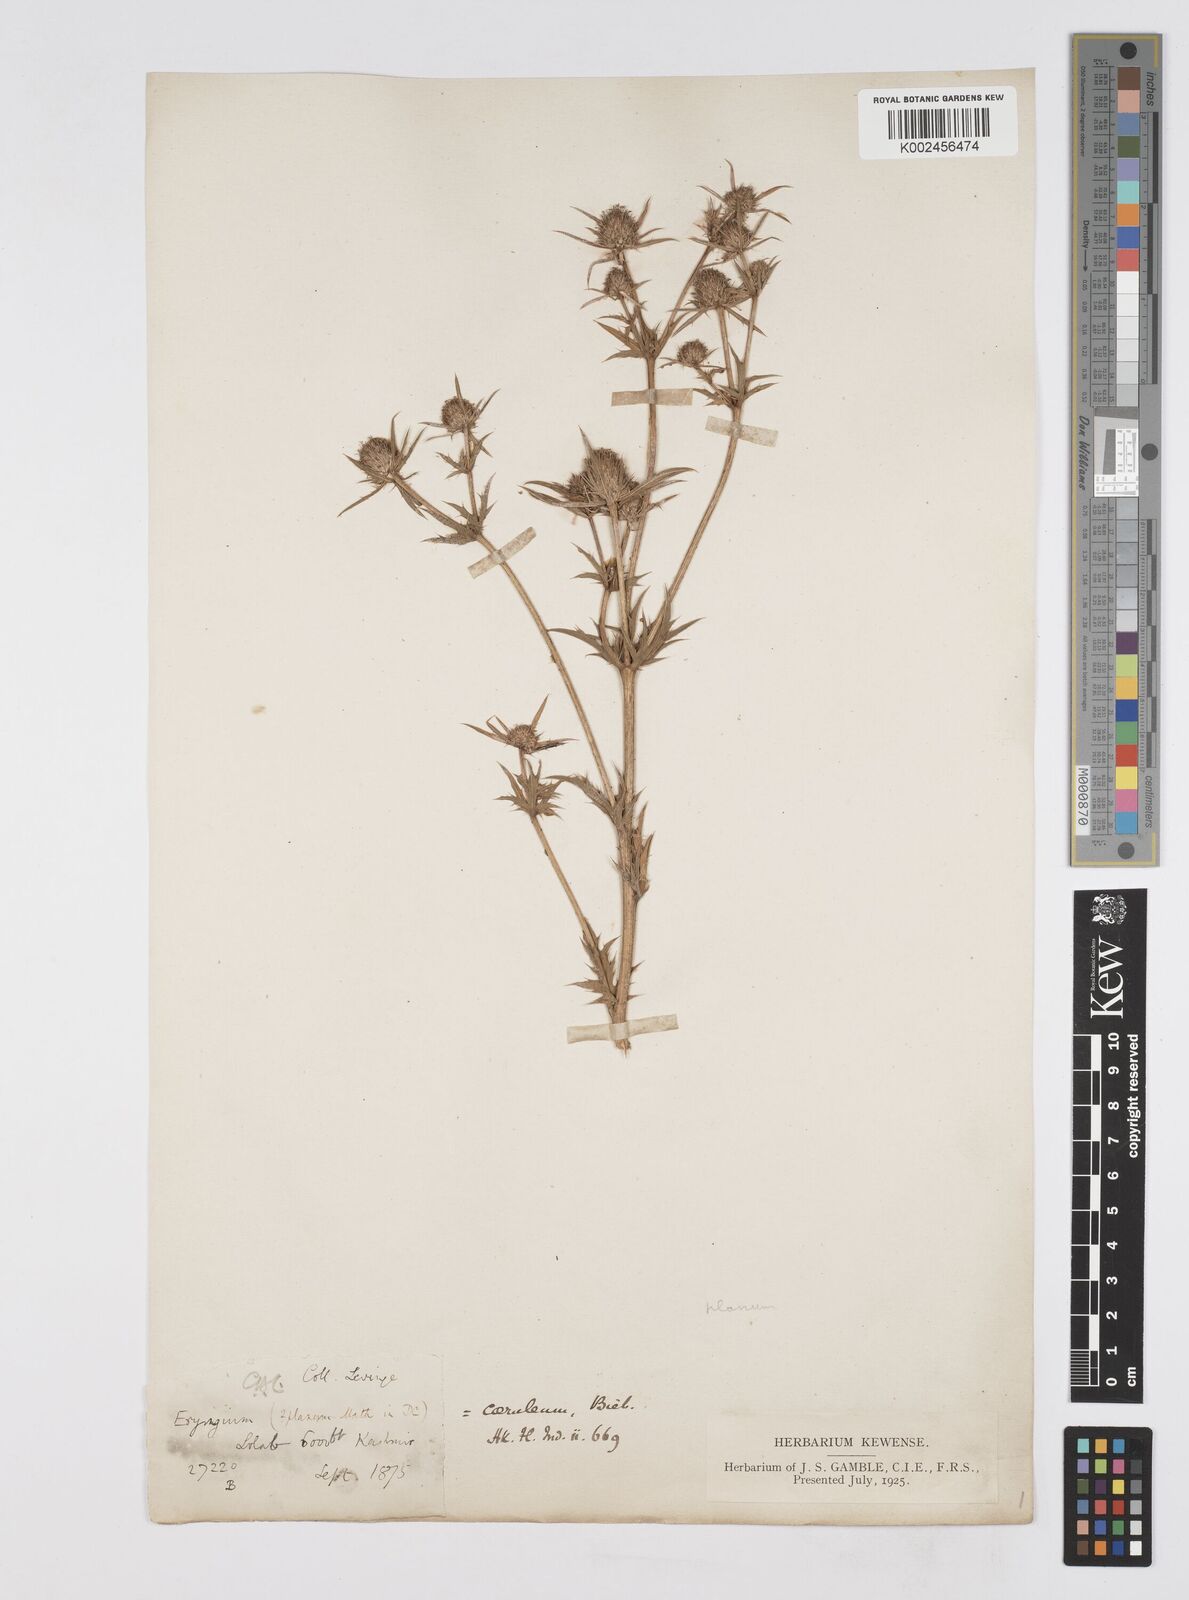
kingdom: Plantae
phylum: Tracheophyta
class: Magnoliopsida
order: Apiales
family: Apiaceae
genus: Eryngium
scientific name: Eryngium caeruleum
